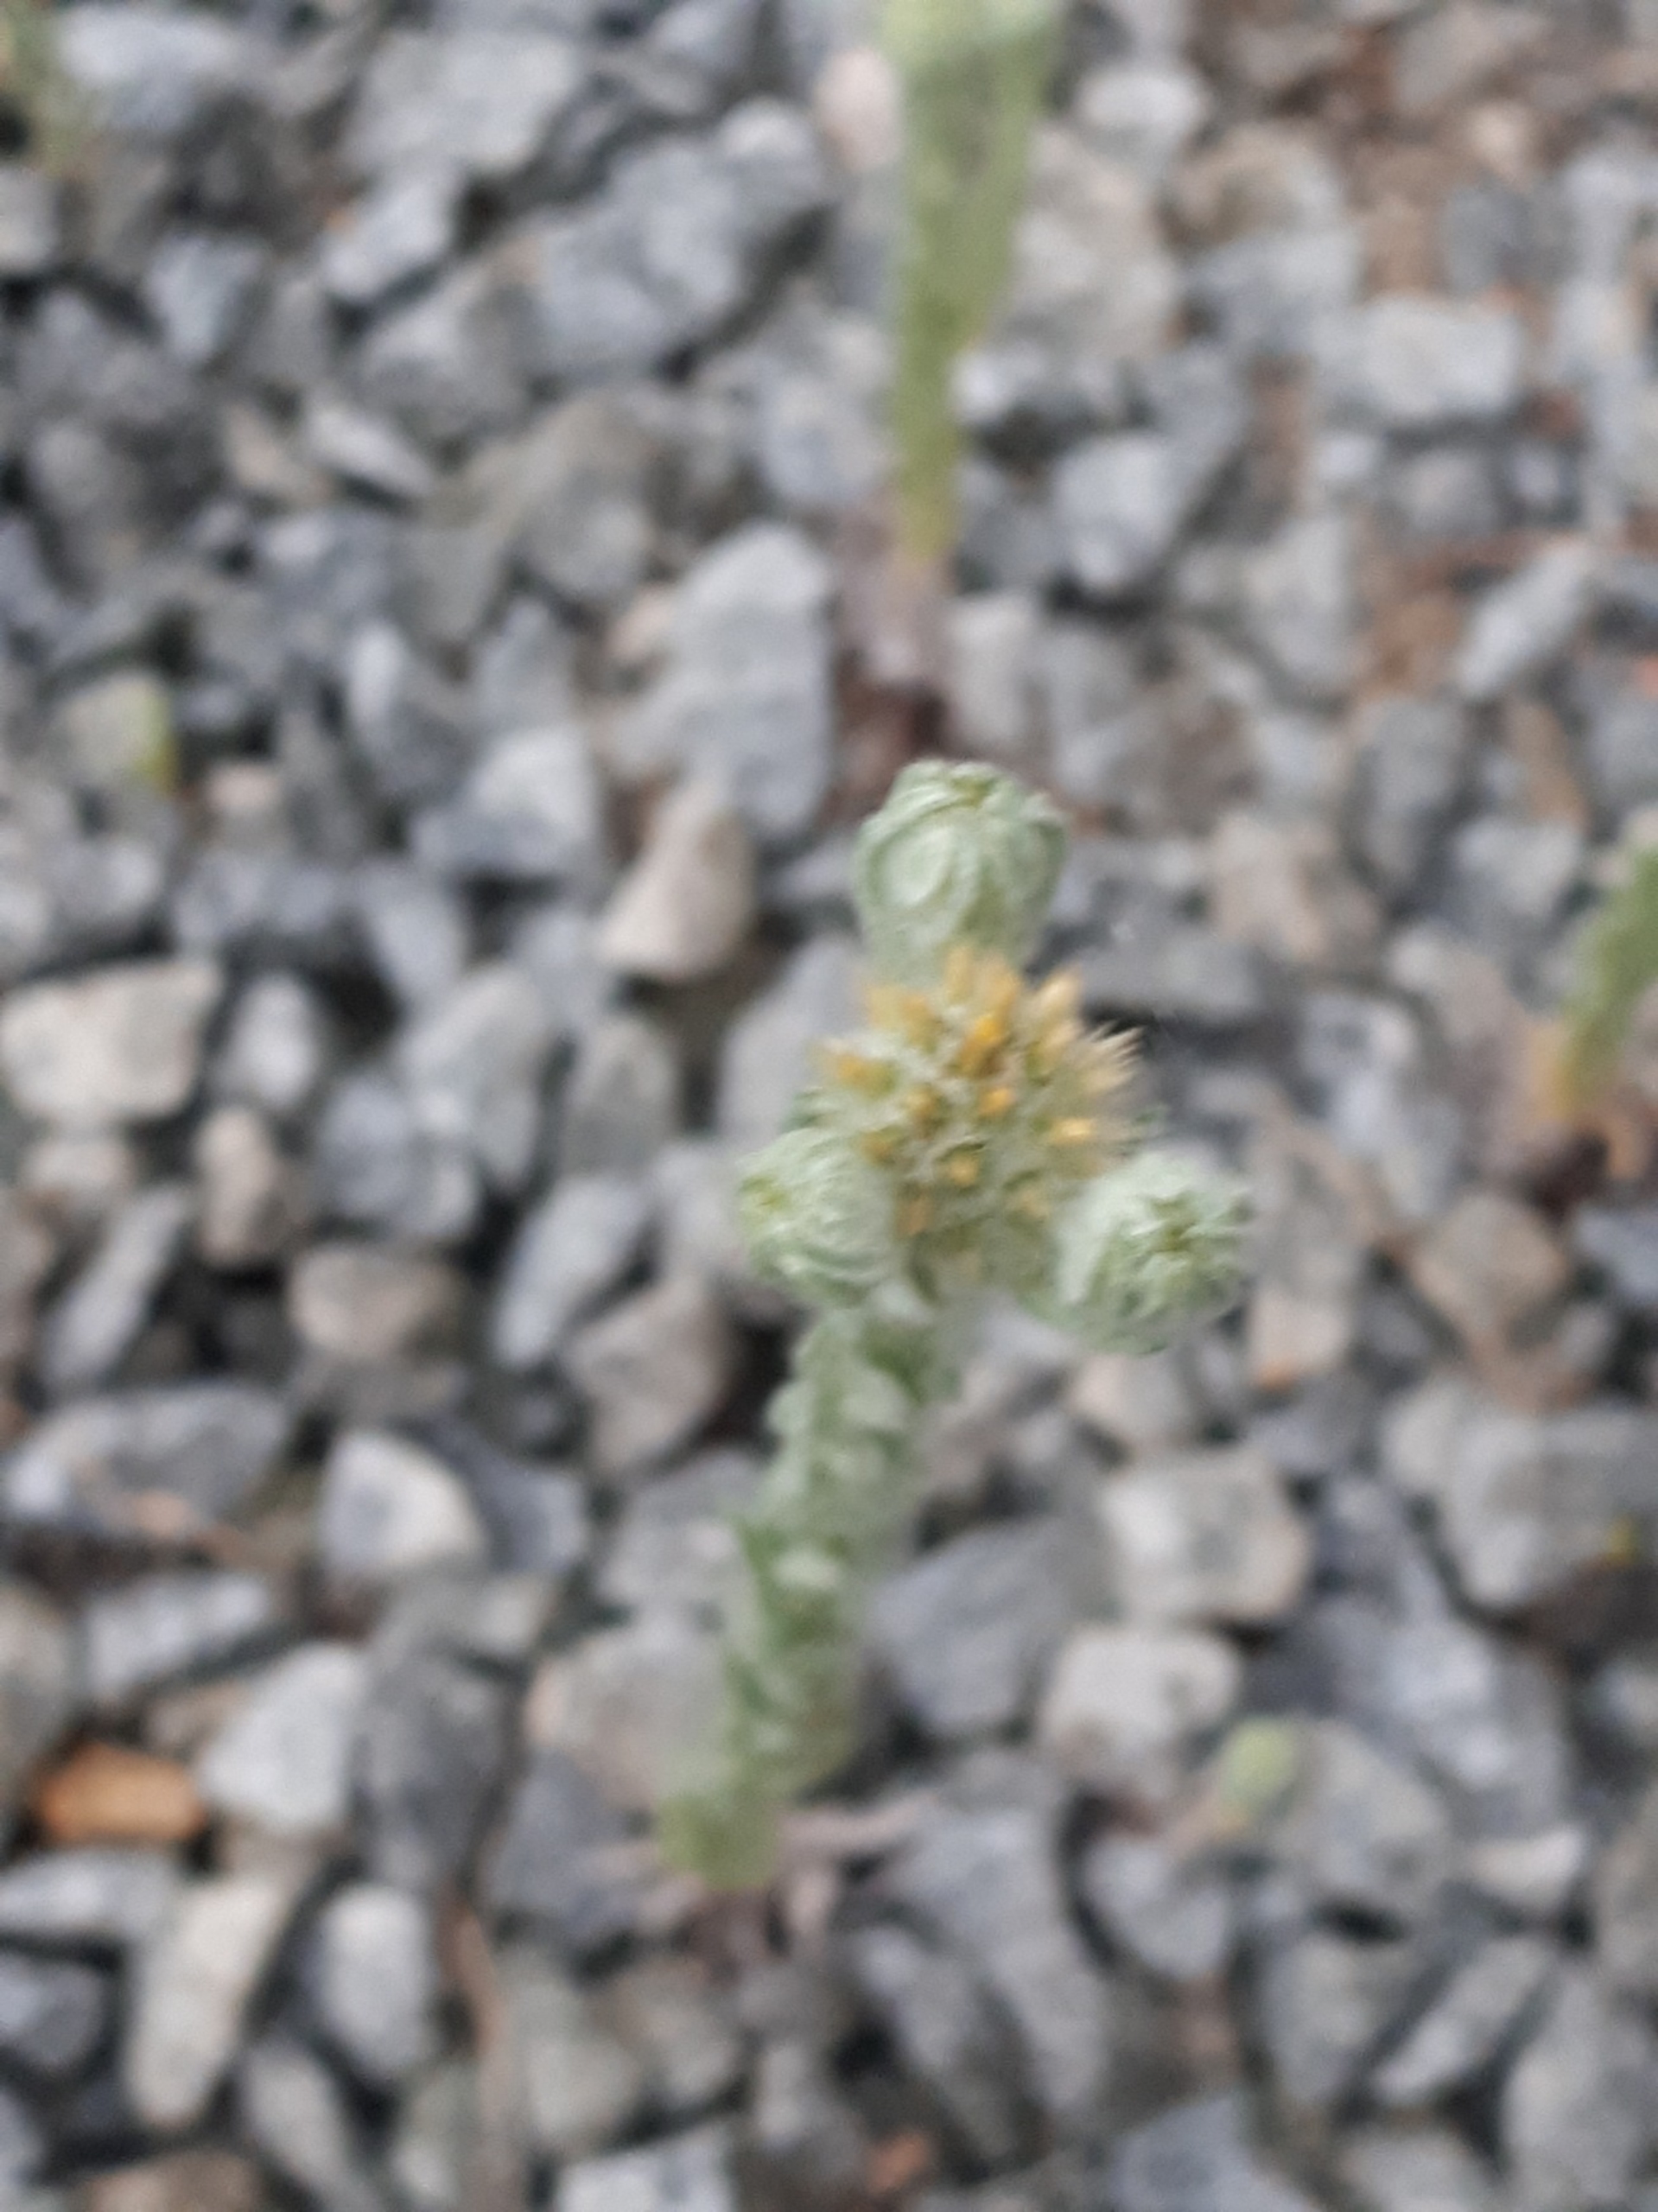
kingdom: Plantae
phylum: Tracheophyta
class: Magnoliopsida
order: Asterales
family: Asteraceae
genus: Filago
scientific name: Filago germanica
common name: Kugle-museurt
